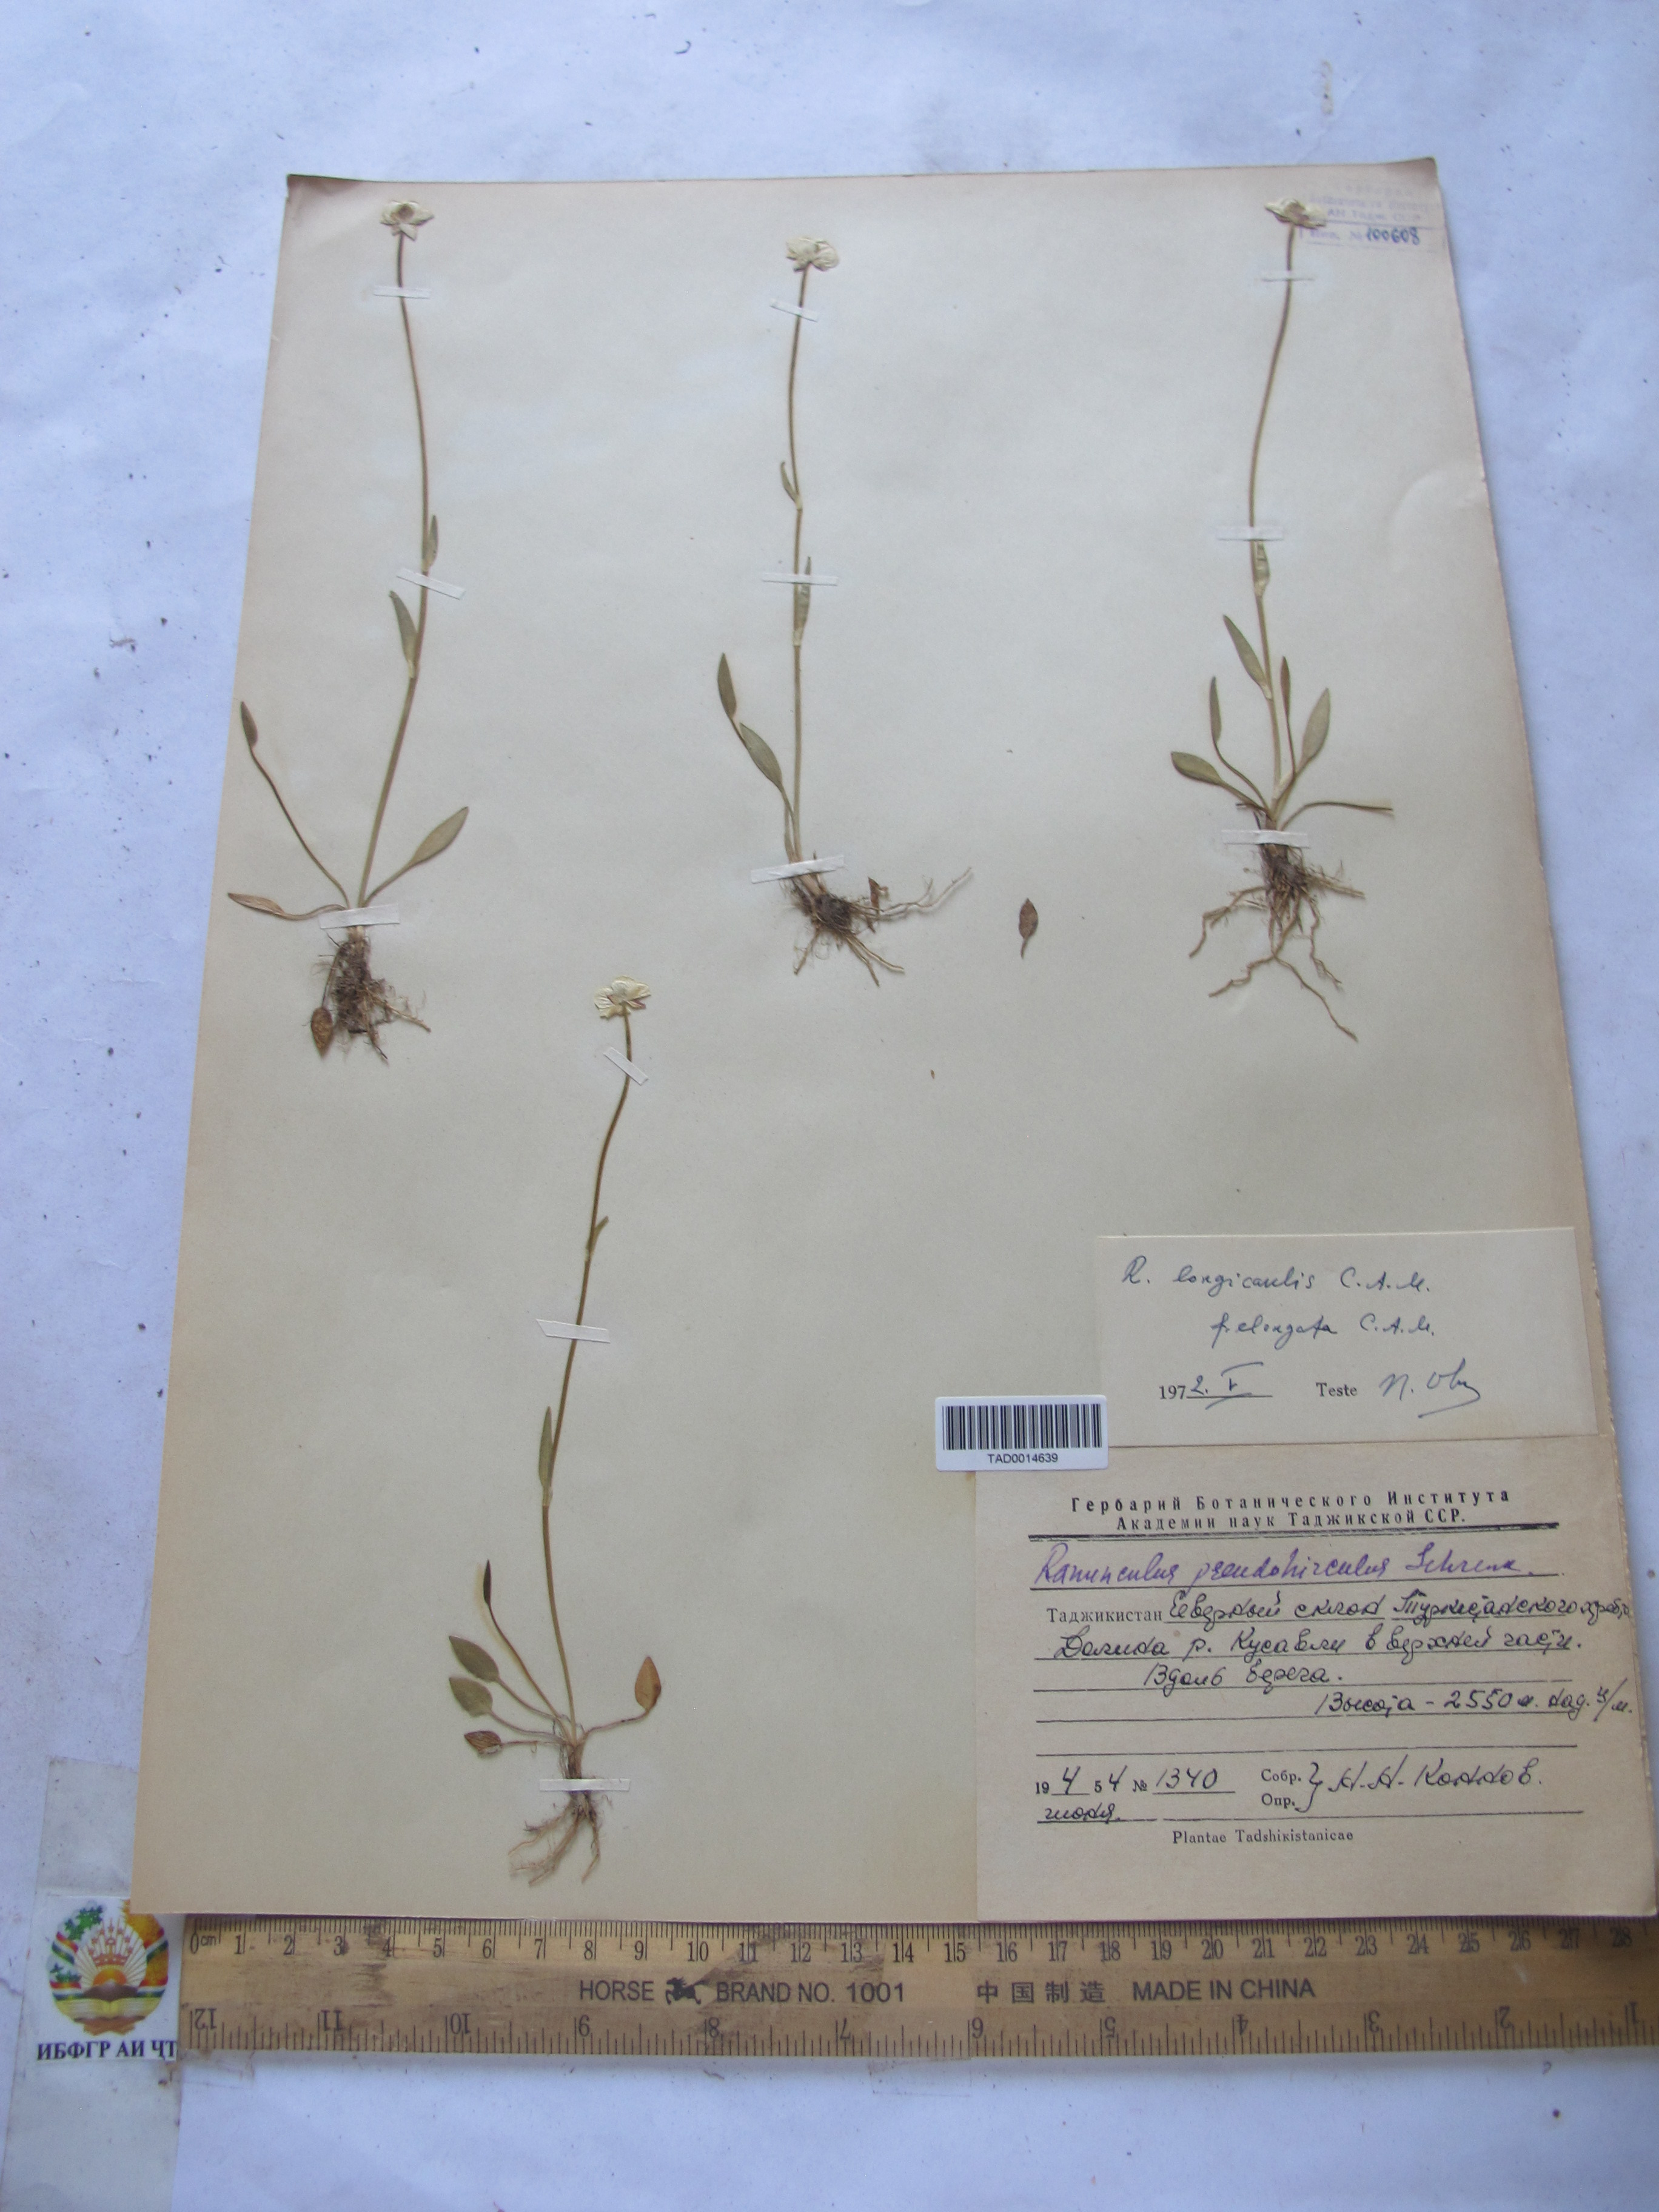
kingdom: Plantae
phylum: Tracheophyta
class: Magnoliopsida
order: Ranunculales
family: Ranunculaceae
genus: Ranunculus
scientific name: Ranunculus longicaulis
